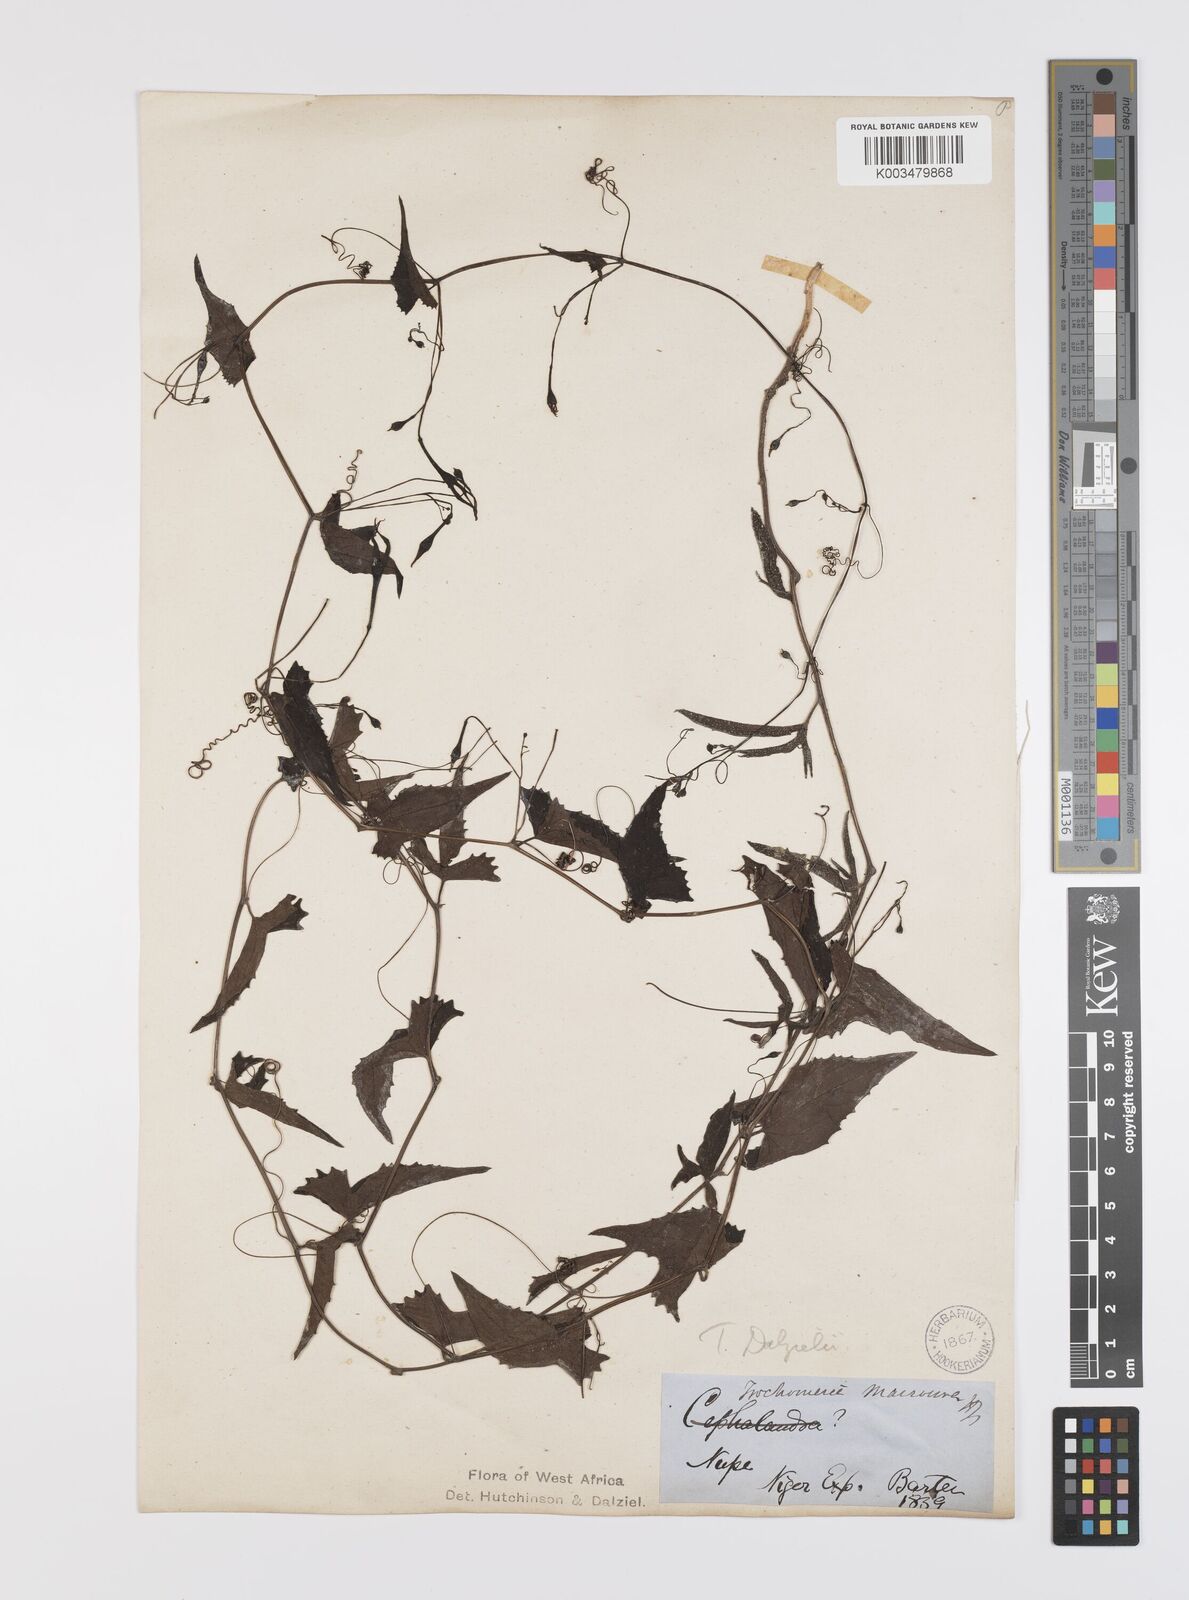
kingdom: Plantae
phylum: Tracheophyta
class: Magnoliopsida
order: Cucurbitales
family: Cucurbitaceae
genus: Trochomeria
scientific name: Trochomeria macrocarpa
